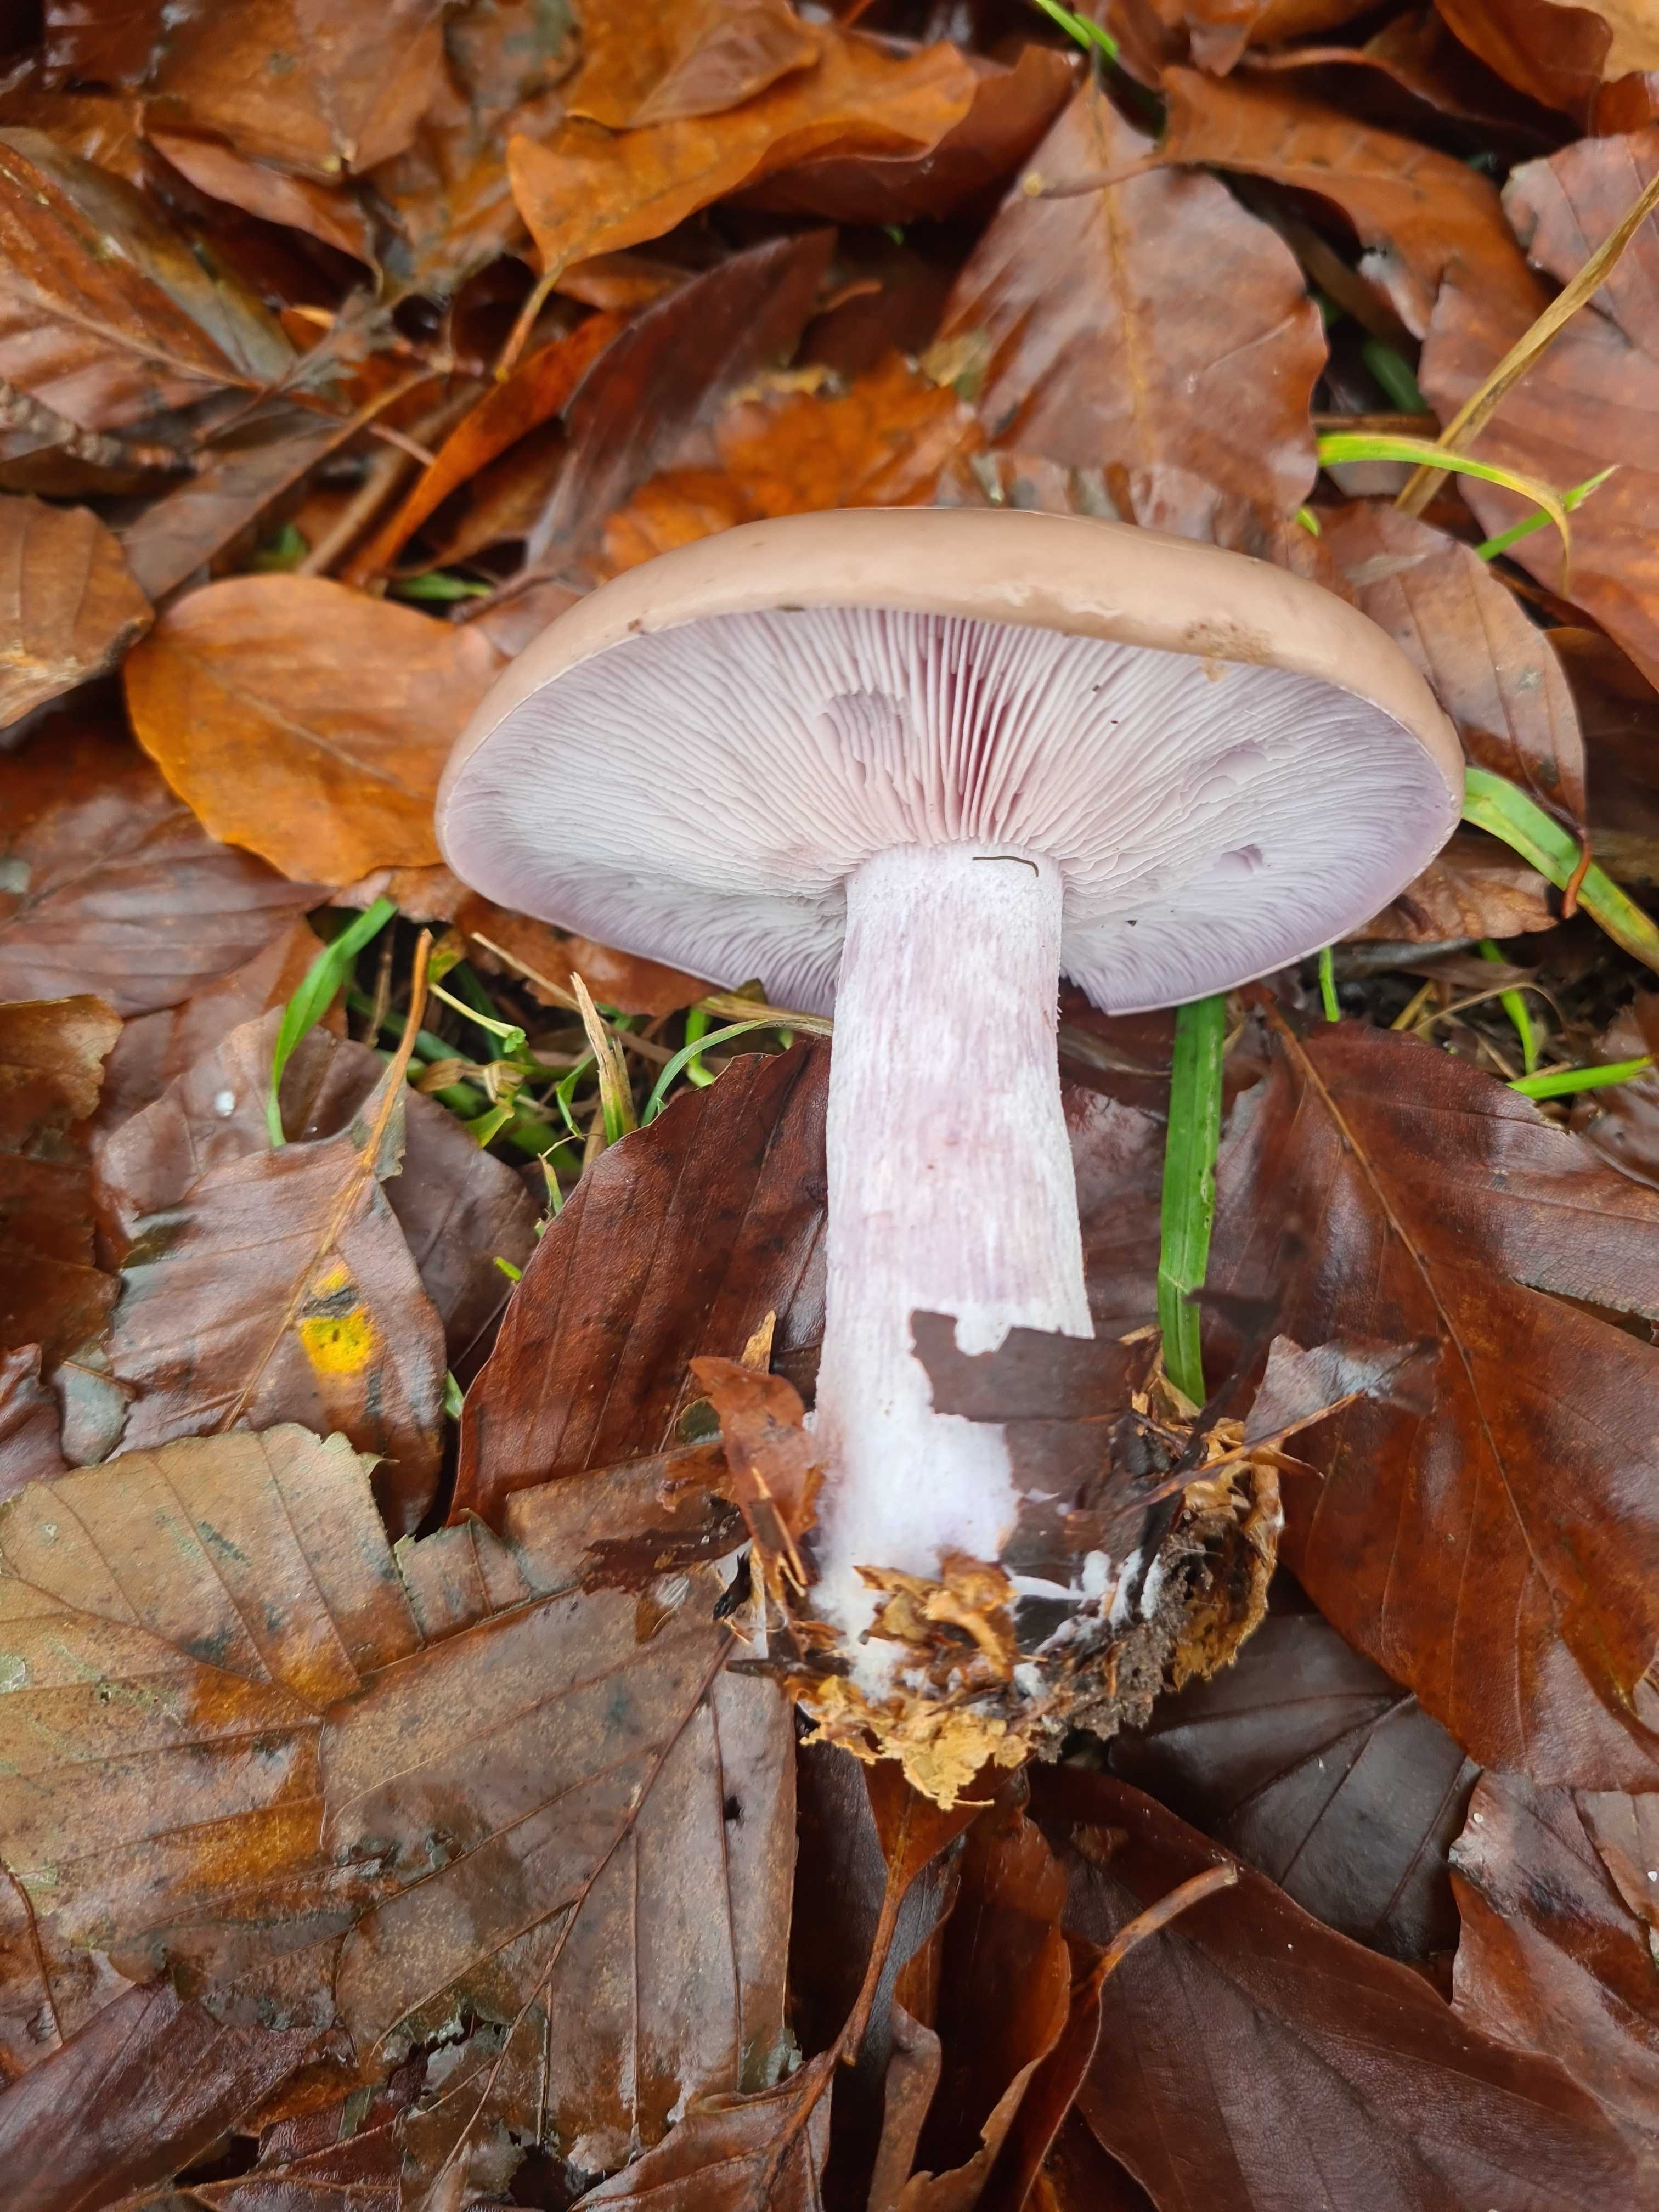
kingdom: Fungi
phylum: Basidiomycota
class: Agaricomycetes
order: Agaricales
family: Tricholomataceae
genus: Lepista
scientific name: Lepista nuda
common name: violet hekseringshat
